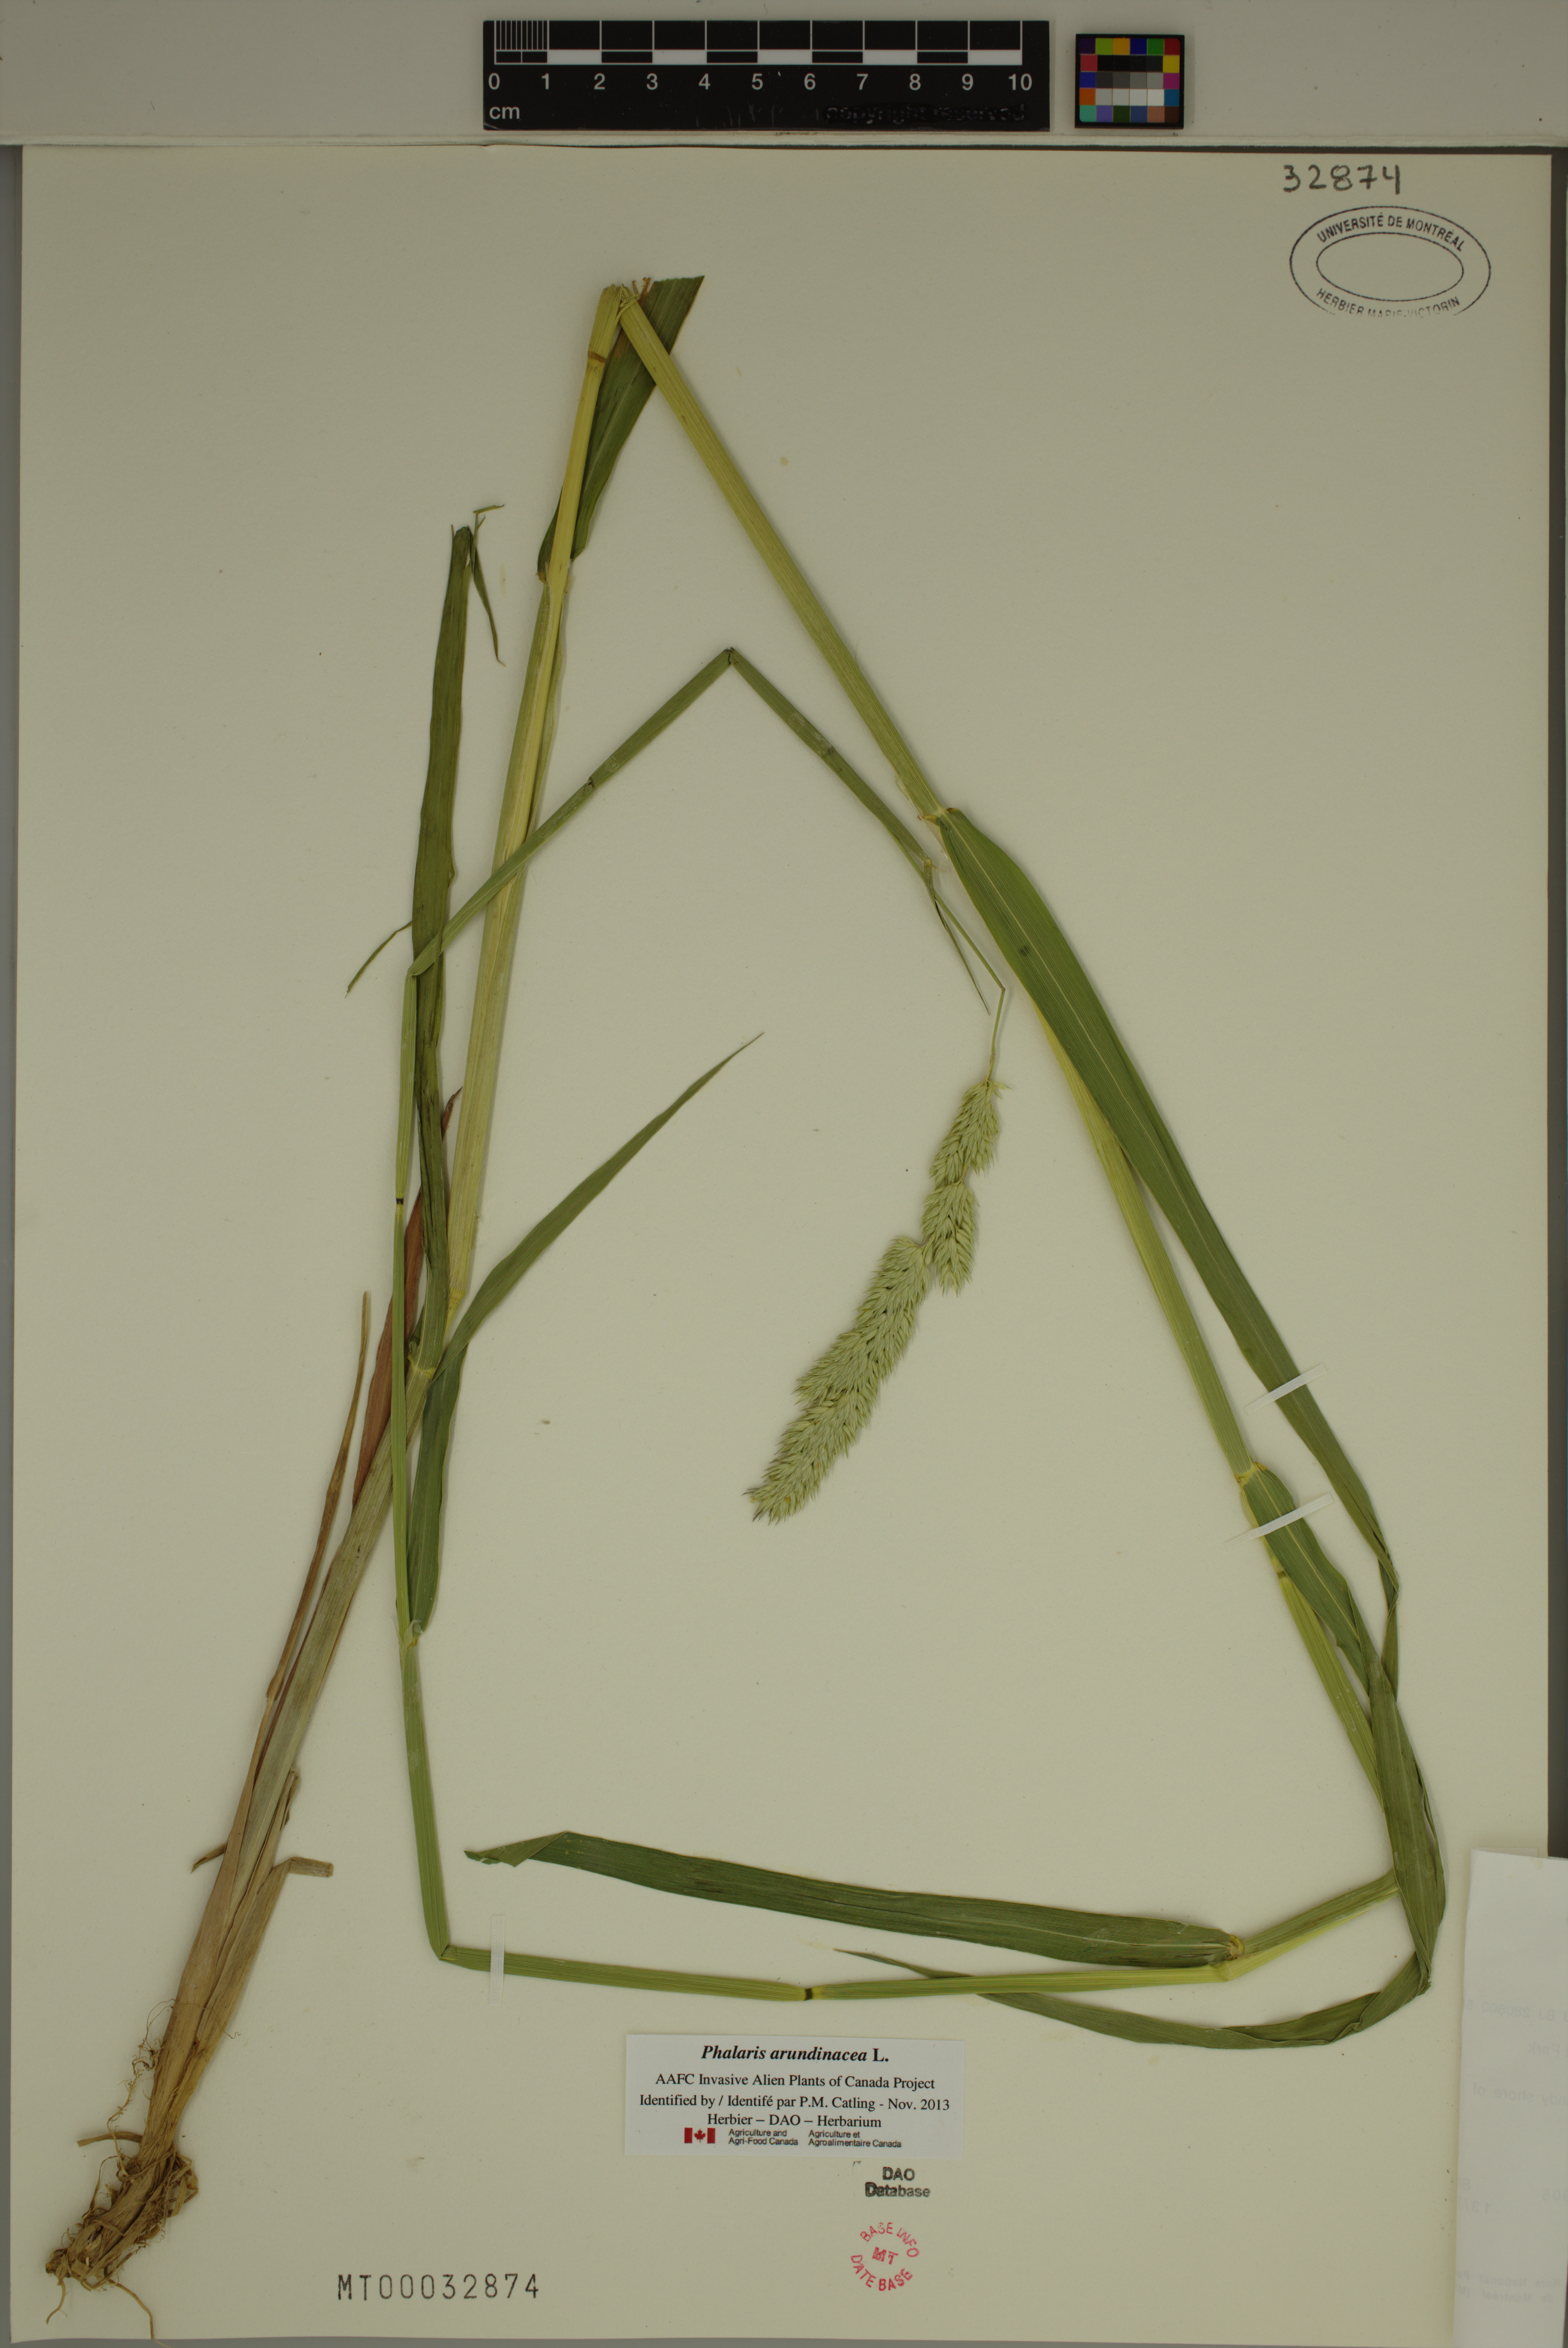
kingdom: Plantae
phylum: Tracheophyta
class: Liliopsida
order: Poales
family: Poaceae
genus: Phalaris
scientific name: Phalaris arundinacea
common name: Reed canary-grass
